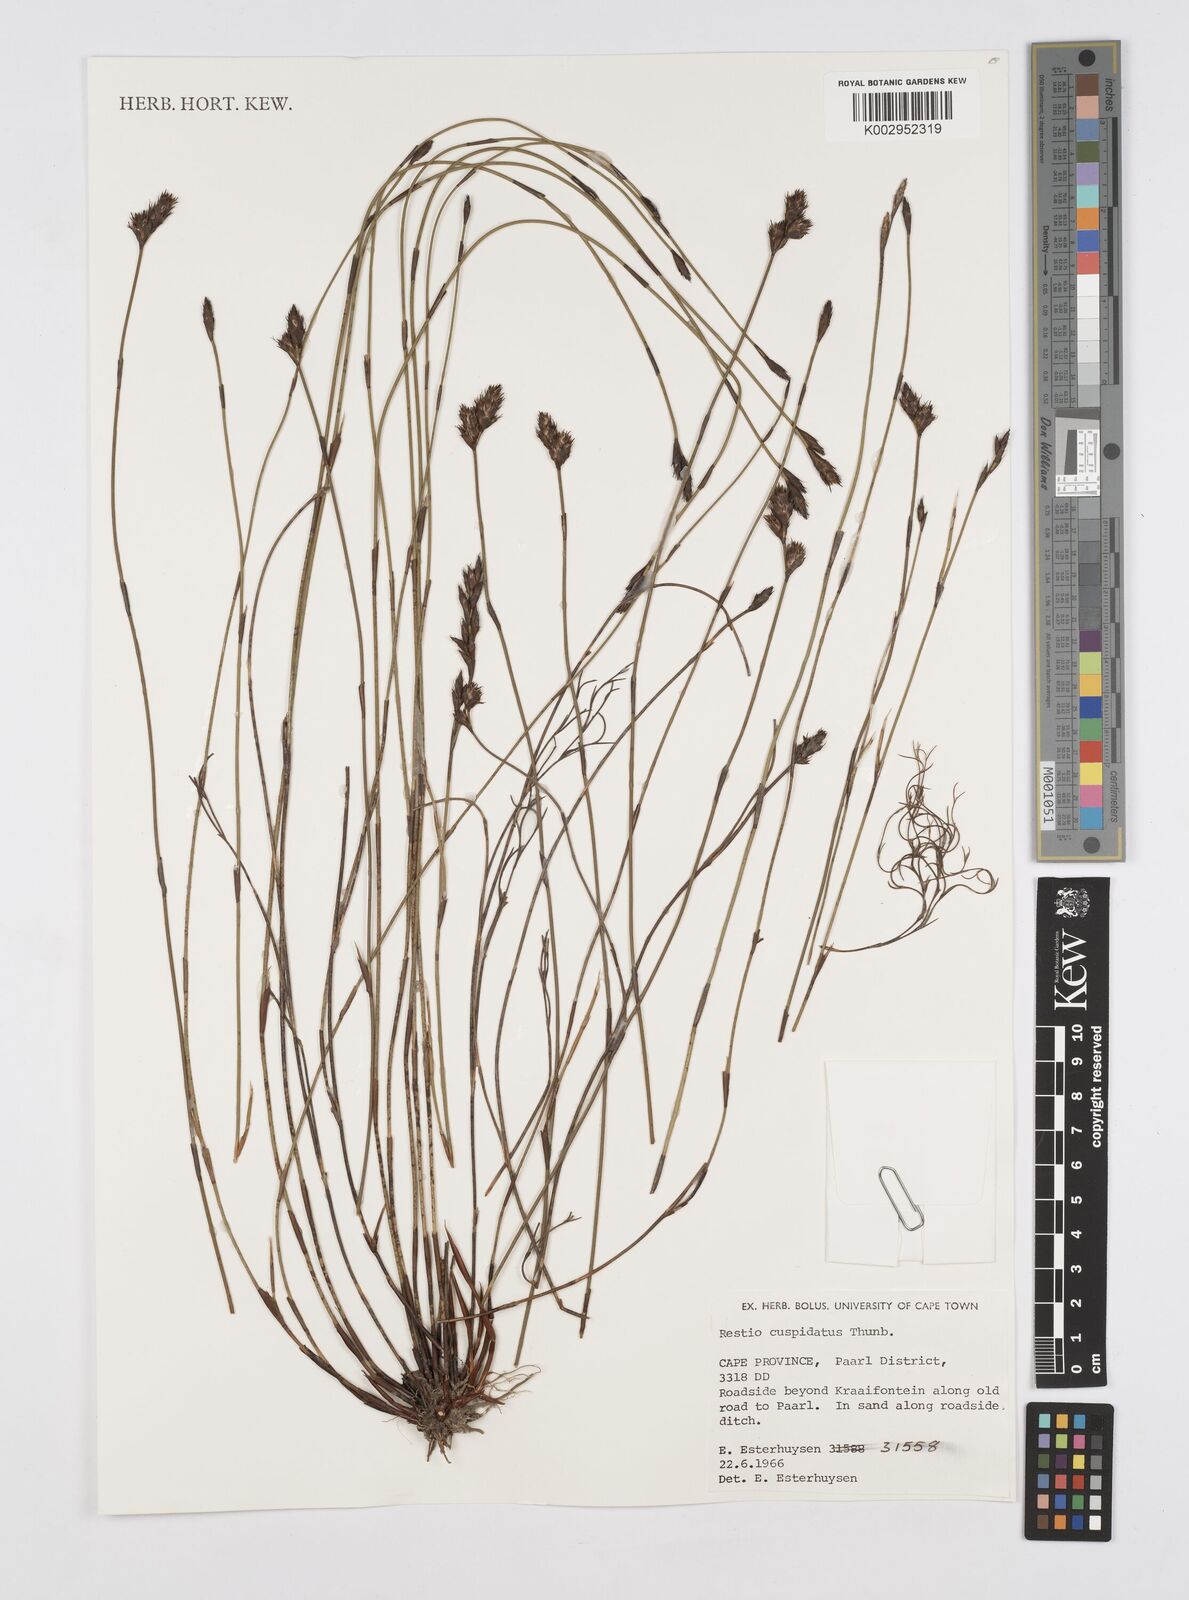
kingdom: Plantae
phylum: Tracheophyta
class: Liliopsida
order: Poales
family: Restionaceae
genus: Restio
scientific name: Restio capensis
